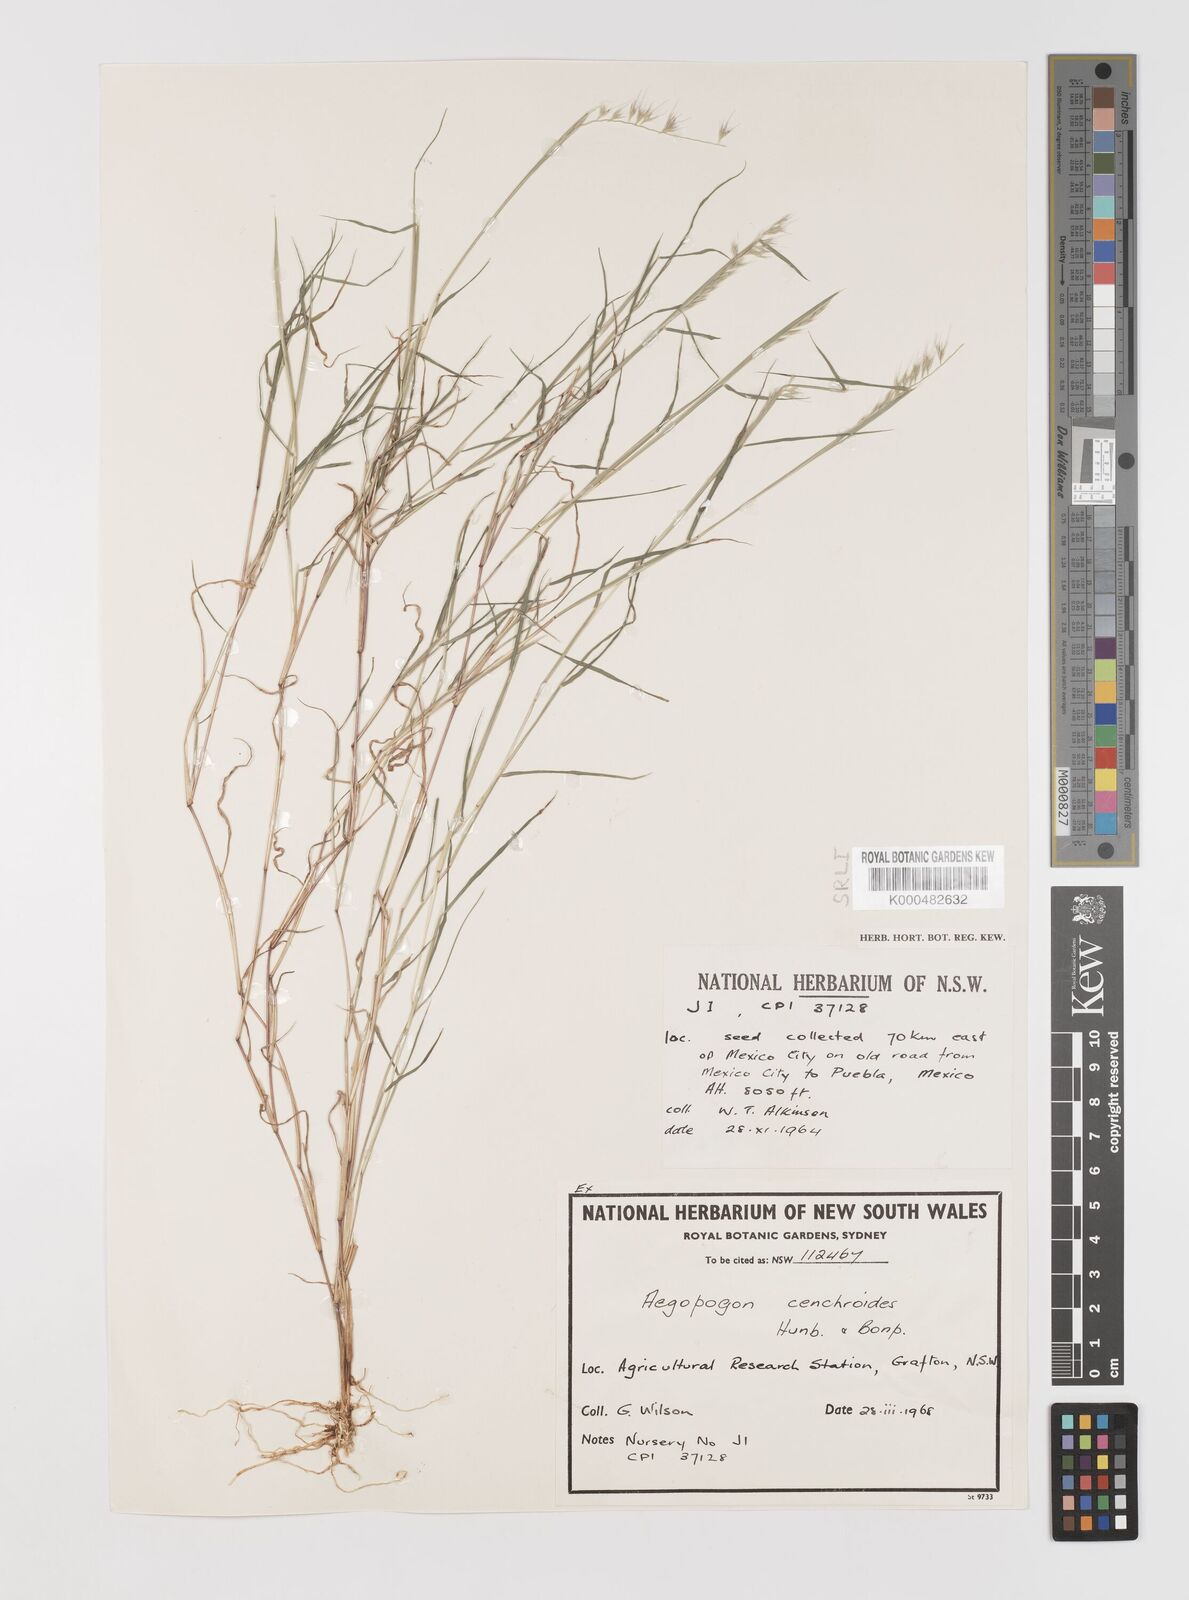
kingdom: Plantae
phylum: Tracheophyta
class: Liliopsida
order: Poales
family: Poaceae
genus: Muhlenbergia
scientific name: Muhlenbergia
